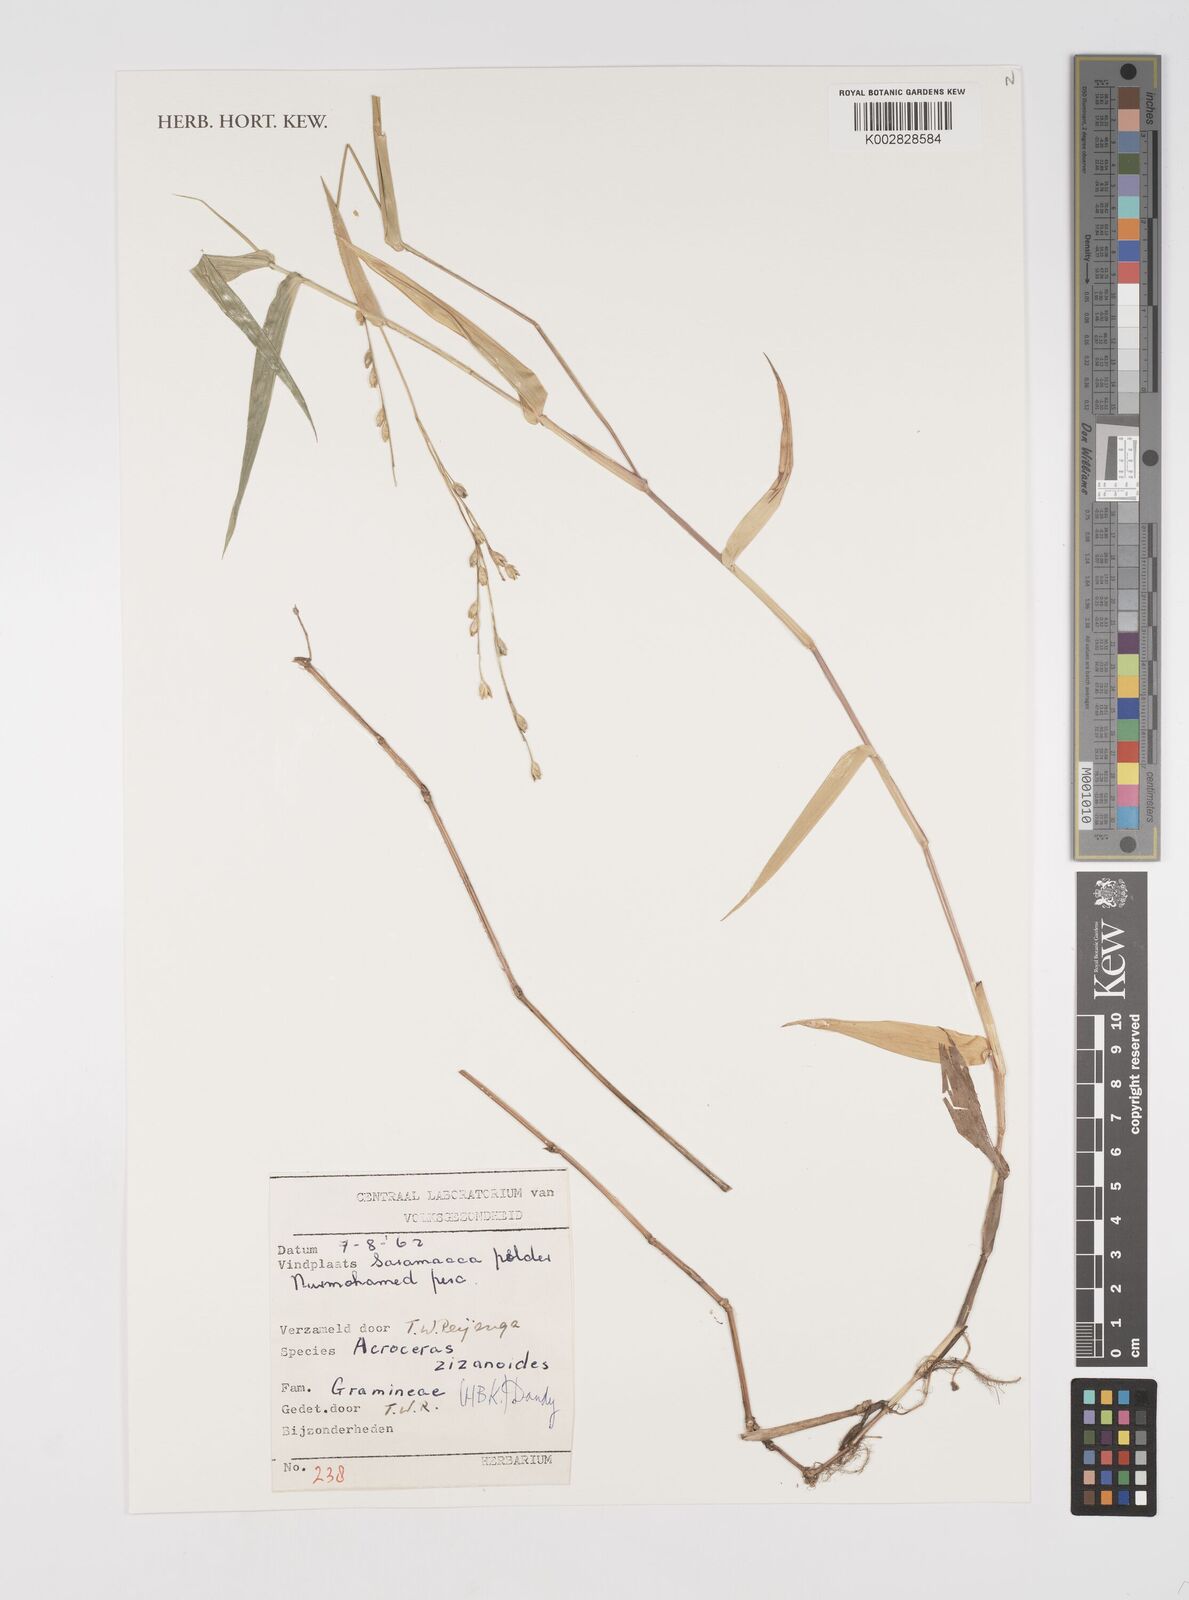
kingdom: Plantae
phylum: Tracheophyta
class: Liliopsida
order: Poales
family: Poaceae
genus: Acroceras
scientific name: Acroceras zizanioides
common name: Oat grass
